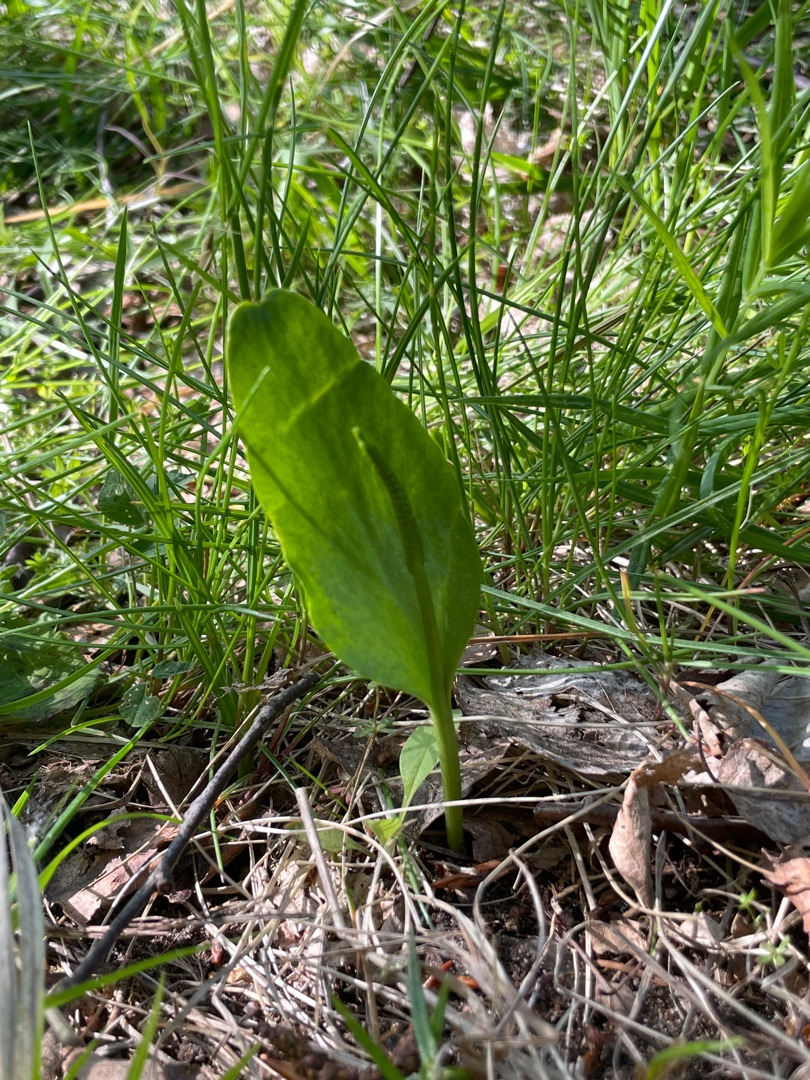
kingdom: Plantae
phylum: Tracheophyta
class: Polypodiopsida
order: Ophioglossales
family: Ophioglossaceae
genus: Ophioglossum
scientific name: Ophioglossum vulgatum
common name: Slangetunge
